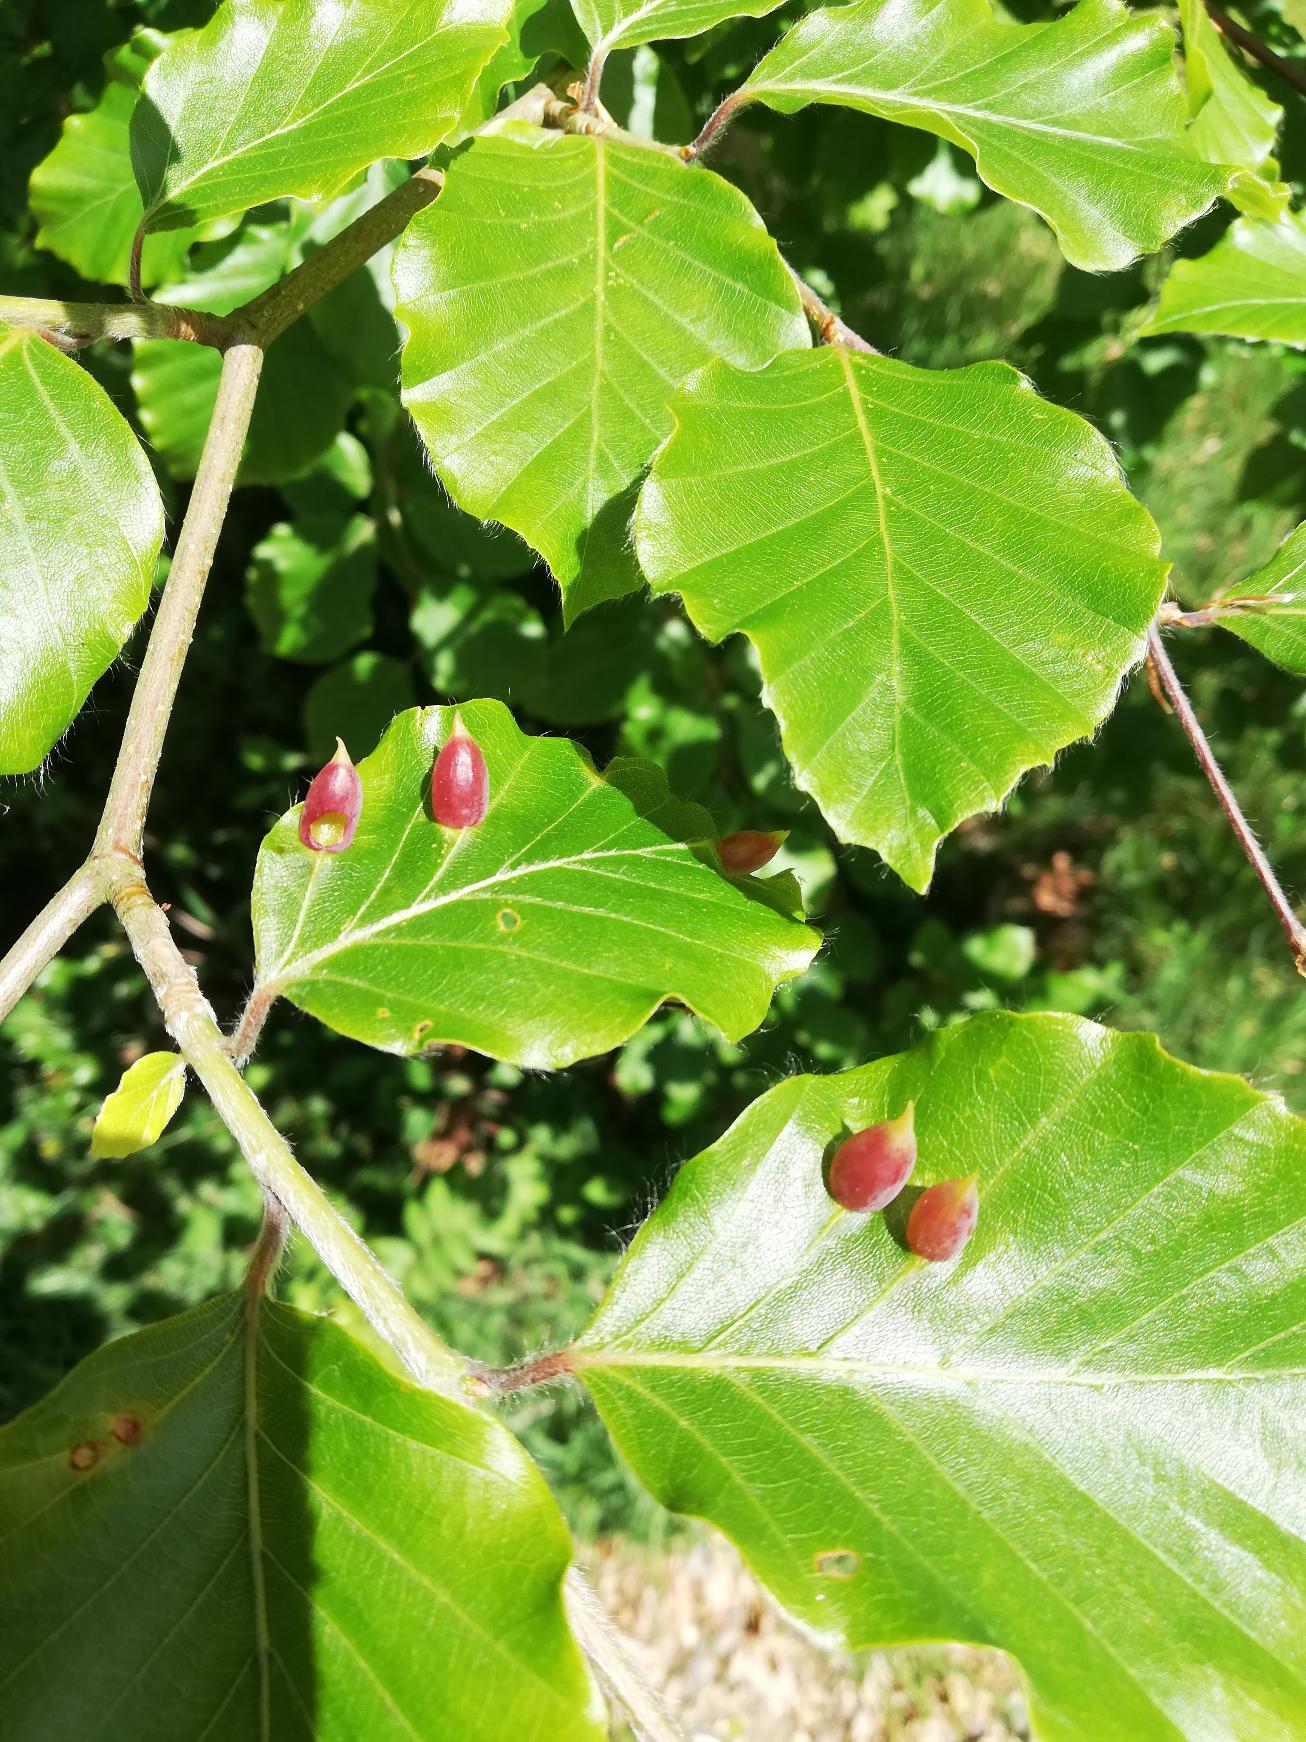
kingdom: Animalia
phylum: Arthropoda
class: Insecta
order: Diptera
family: Cecidomyiidae
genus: Mikiola
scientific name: Mikiola fagi
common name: Bøgegalmyg
